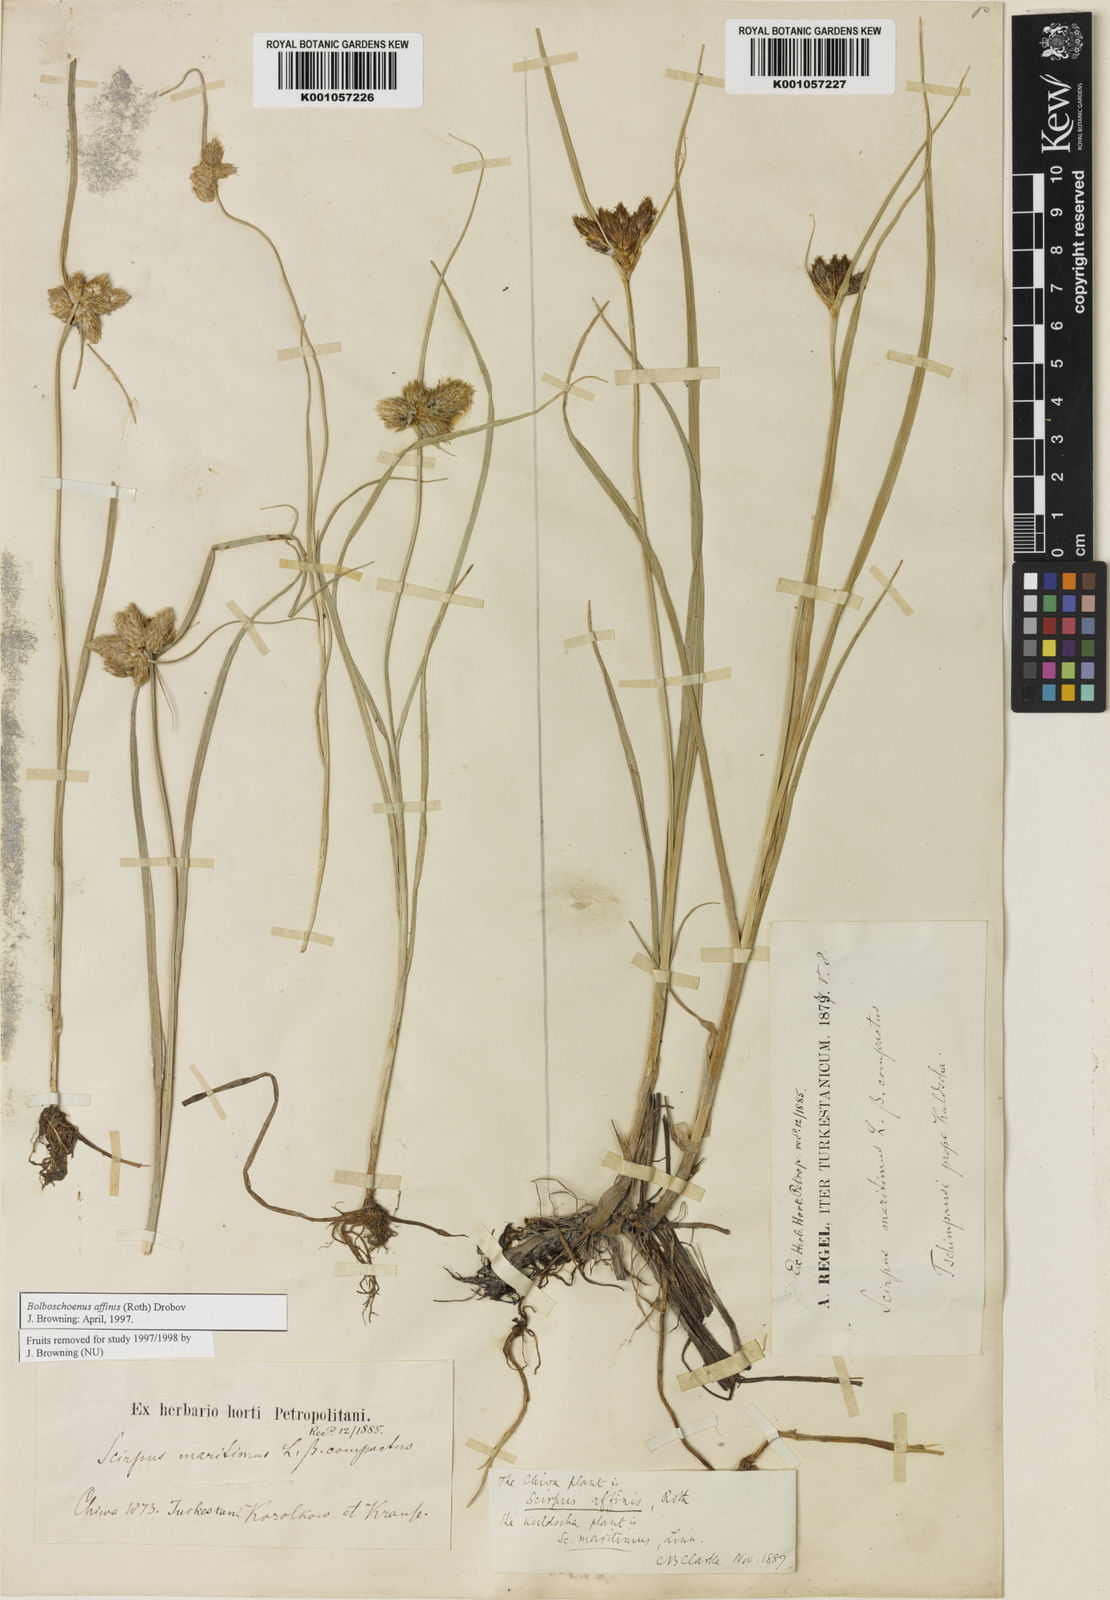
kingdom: Plantae
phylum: Tracheophyta
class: Liliopsida
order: Poales
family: Cyperaceae
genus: Bolboschoenus
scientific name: Bolboschoenus maritimus
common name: Sea club-rush
